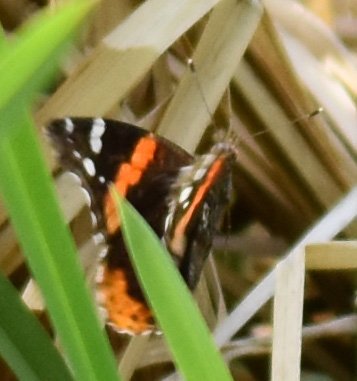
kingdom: Animalia
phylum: Arthropoda
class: Insecta
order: Lepidoptera
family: Nymphalidae
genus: Vanessa
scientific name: Vanessa atalanta
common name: Red Admiral
